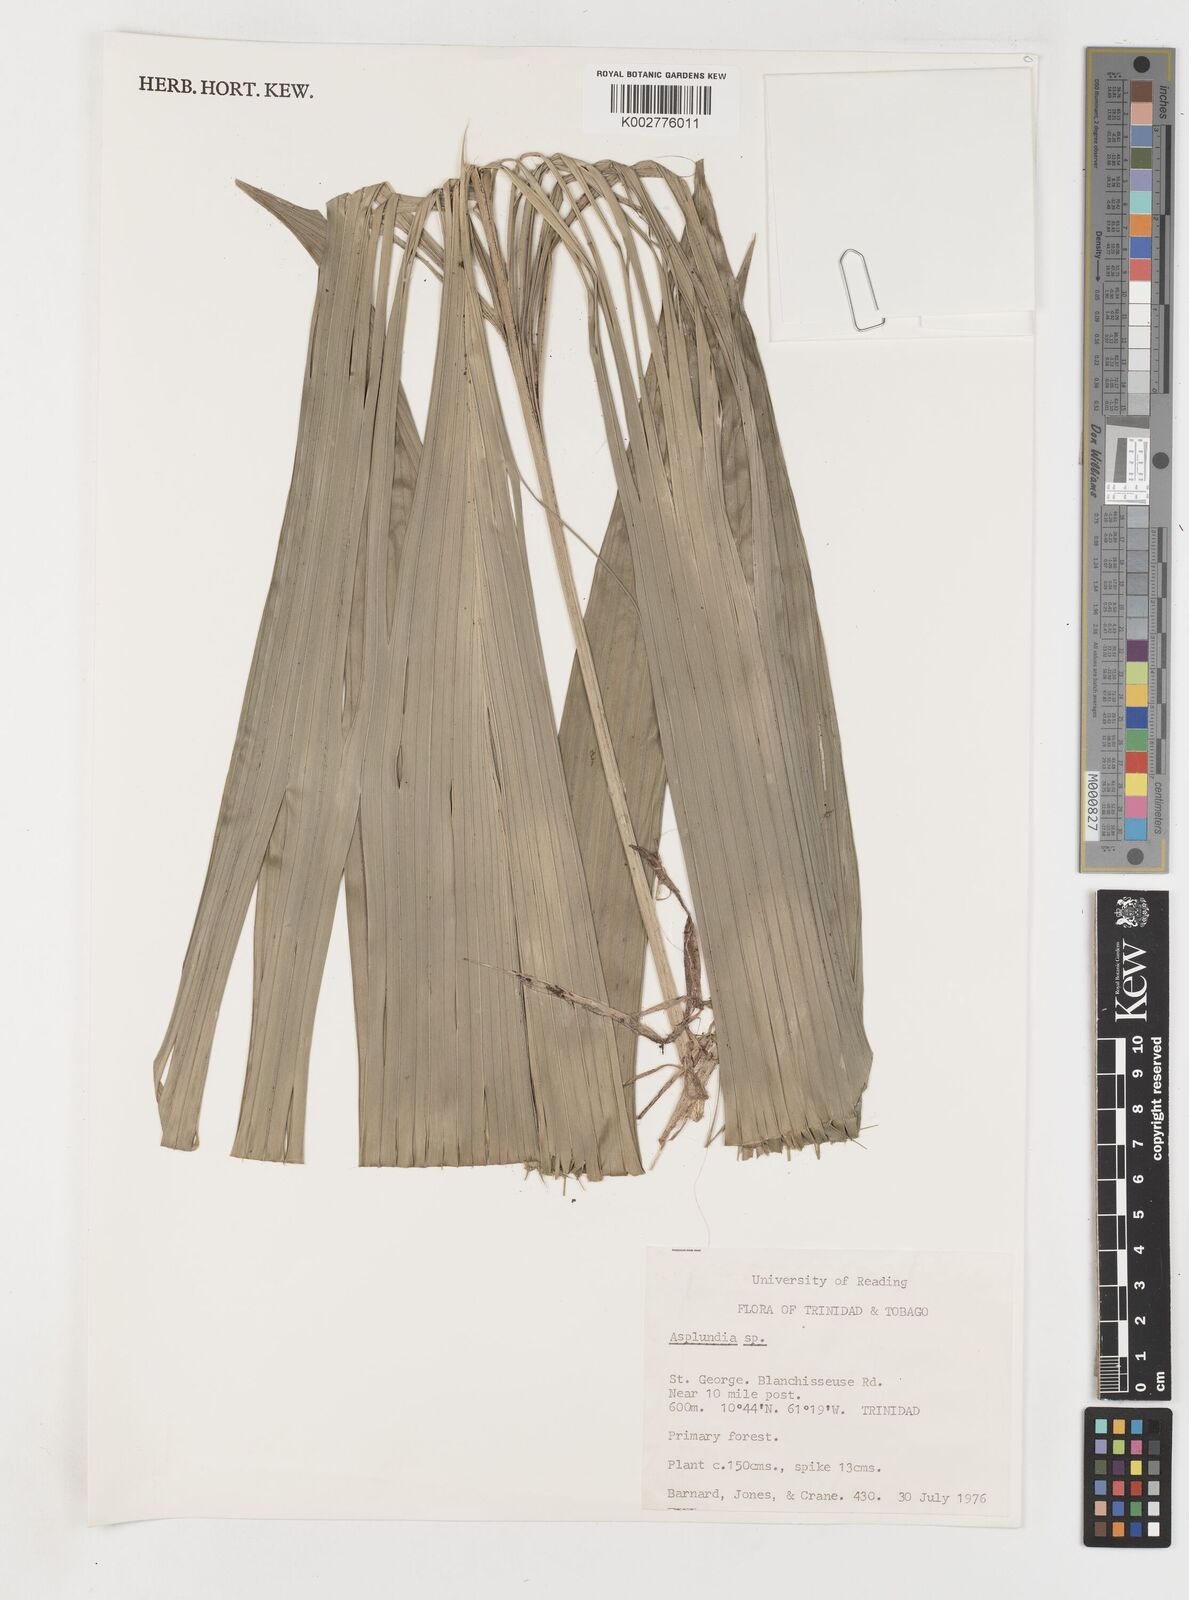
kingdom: Plantae
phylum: Tracheophyta
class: Liliopsida
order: Pandanales
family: Cyclanthaceae
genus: Asplundia
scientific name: Asplundia
